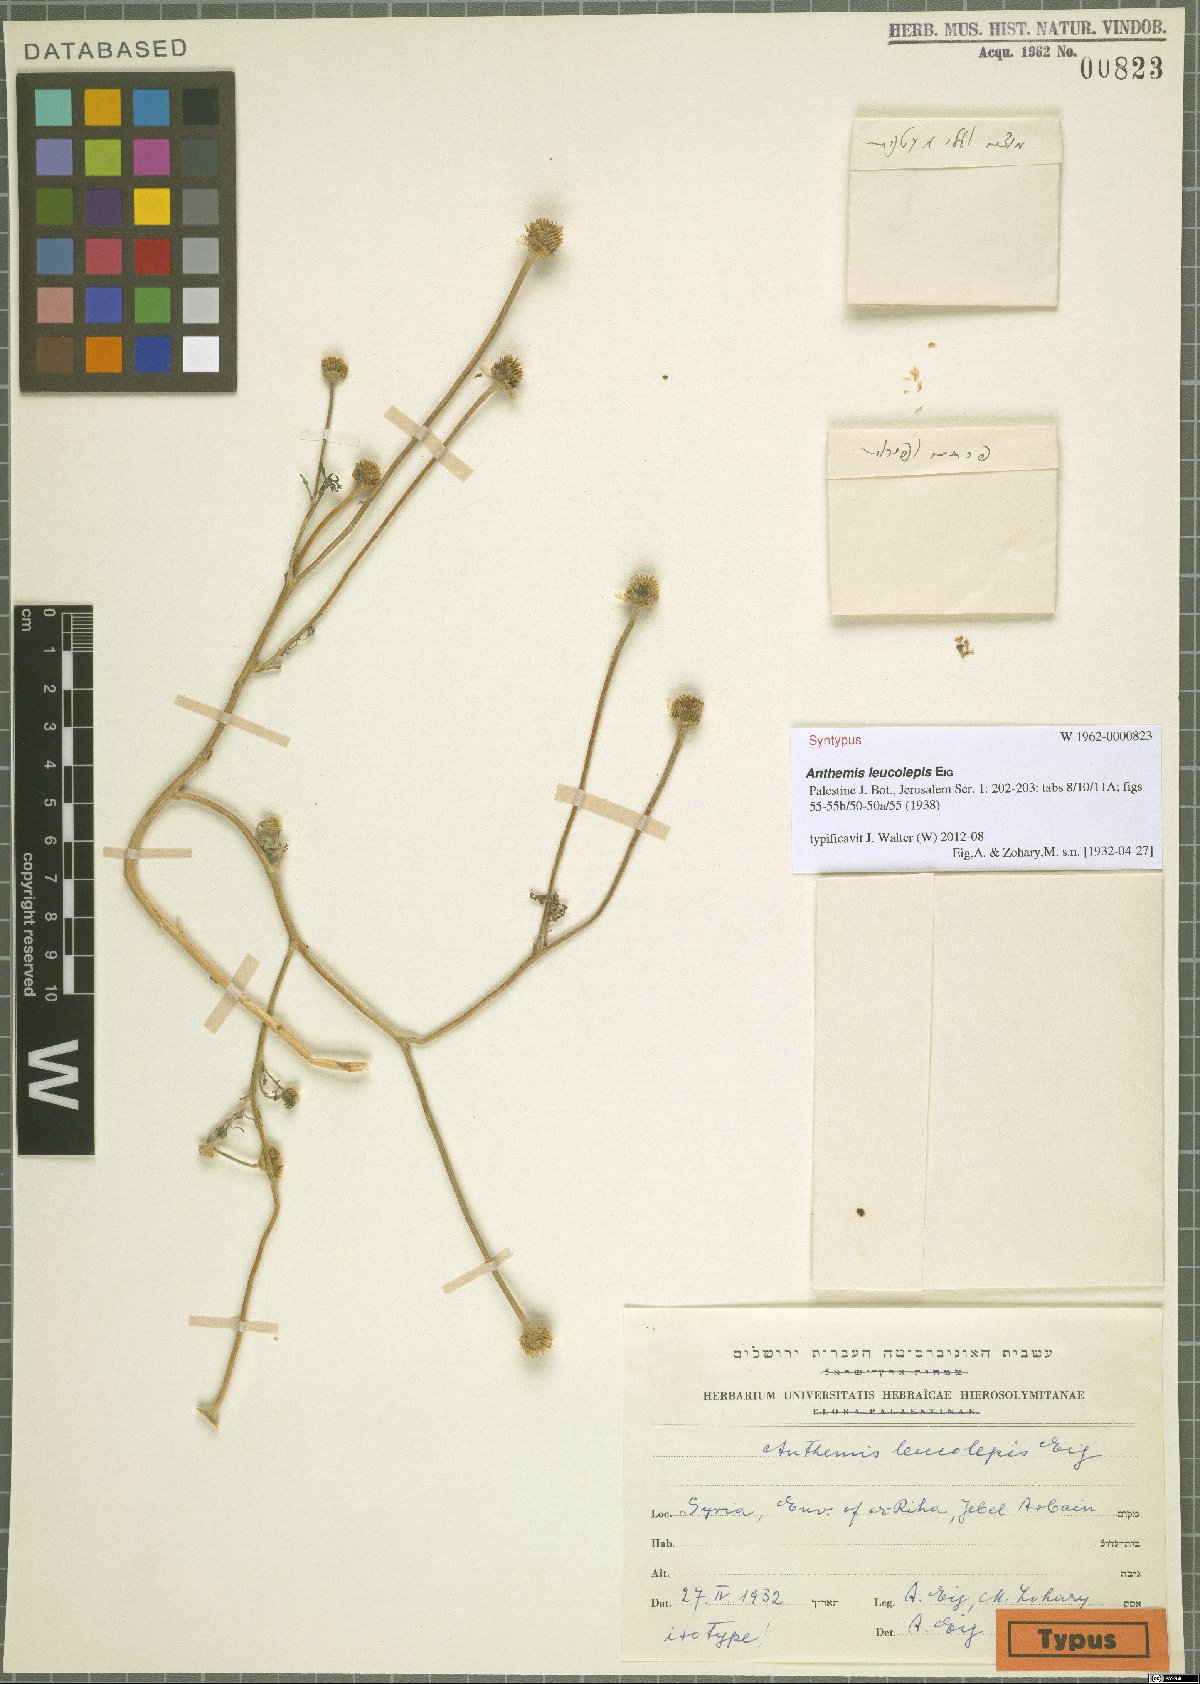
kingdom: Plantae
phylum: Tracheophyta
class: Magnoliopsida
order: Asterales
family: Asteraceae
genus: Anthemis
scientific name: Anthemis leucolepis
